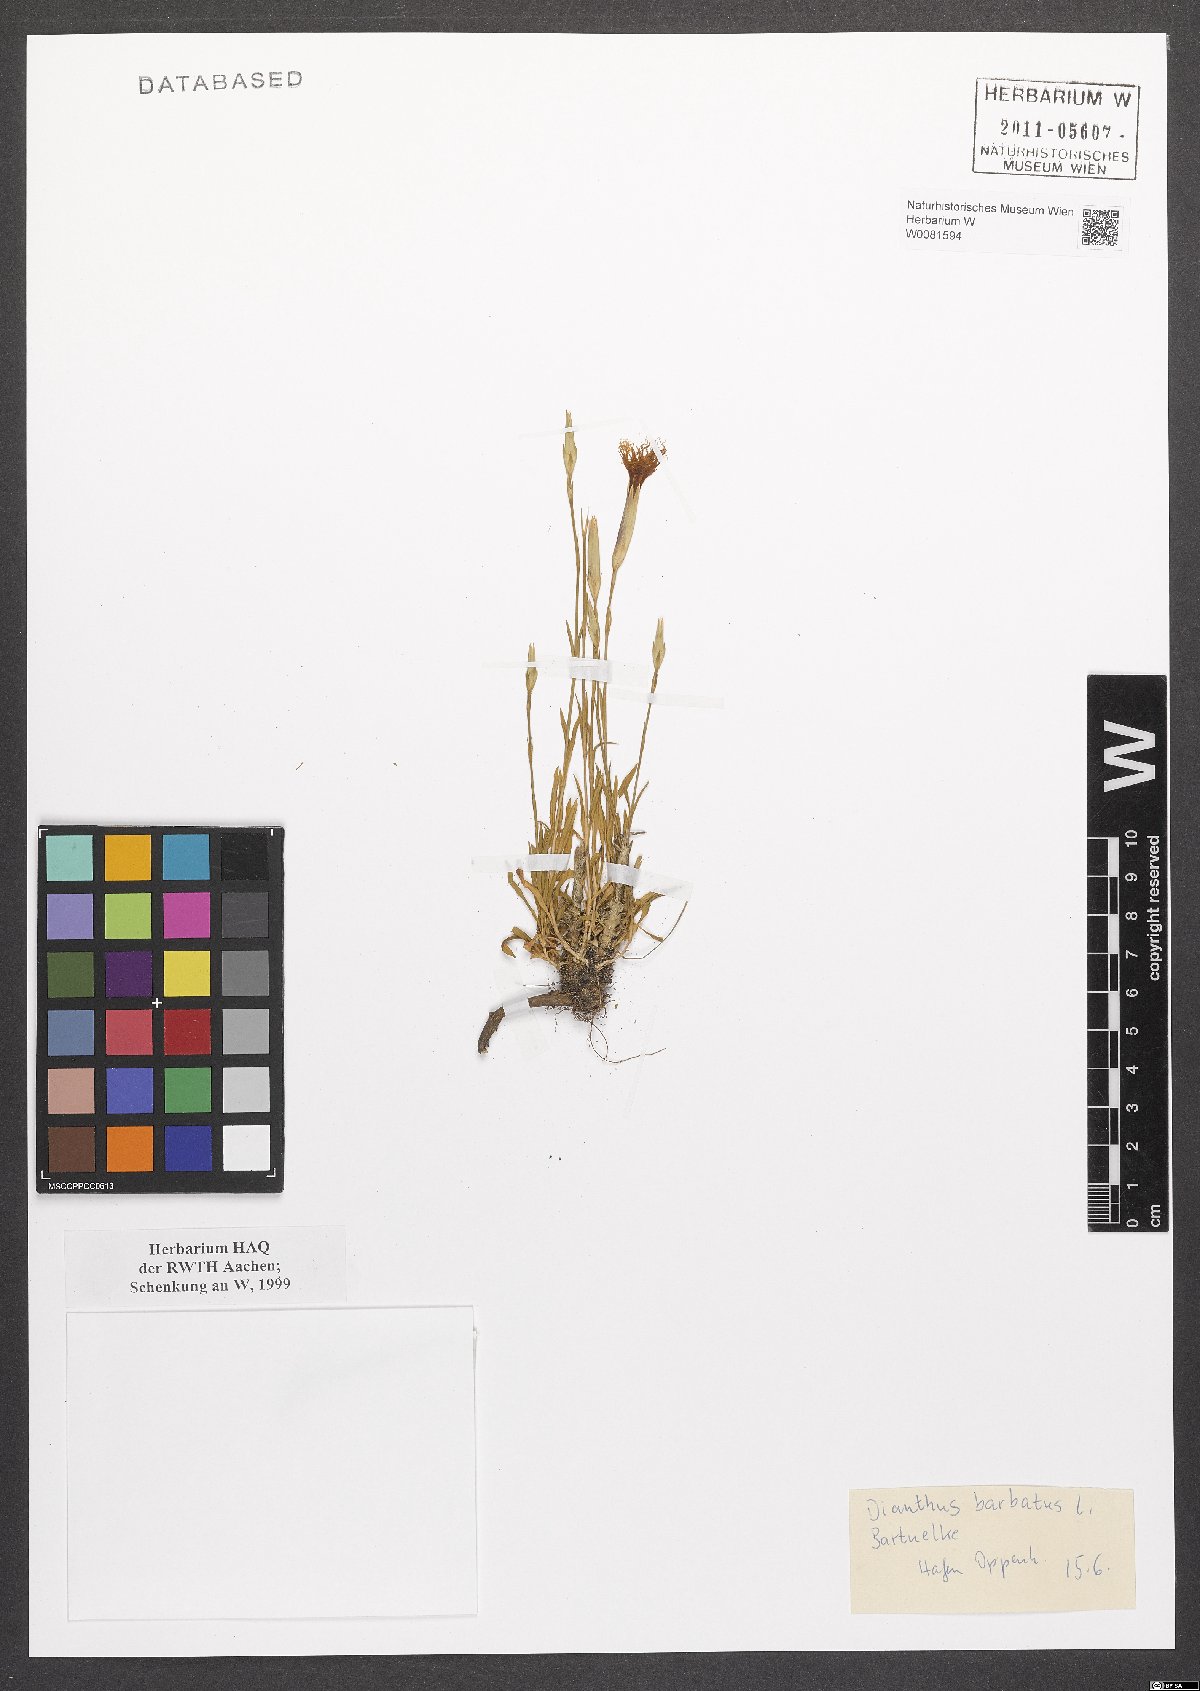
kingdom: Plantae
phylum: Tracheophyta
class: Magnoliopsida
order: Caryophyllales
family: Caryophyllaceae
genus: Dianthus
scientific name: Dianthus barbatus
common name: Sweet-william
